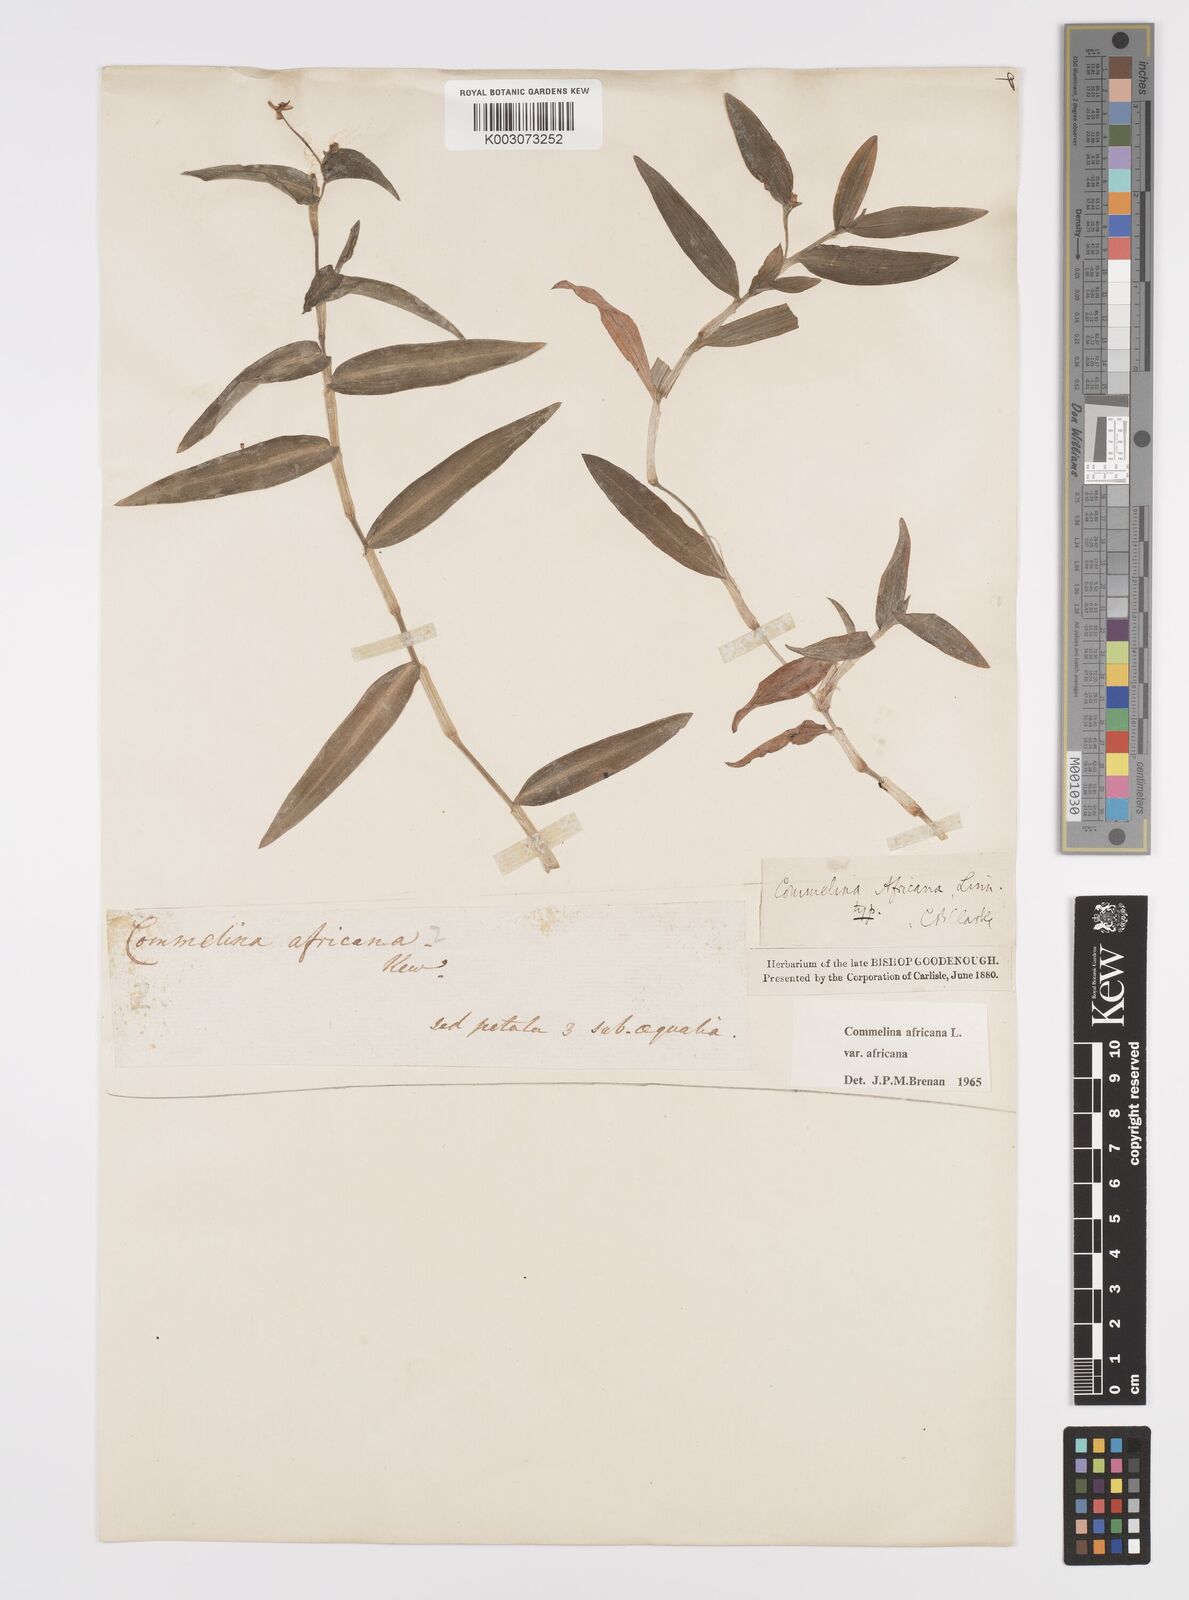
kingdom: Plantae
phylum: Tracheophyta
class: Liliopsida
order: Commelinales
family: Commelinaceae
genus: Commelina
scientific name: Commelina africana
